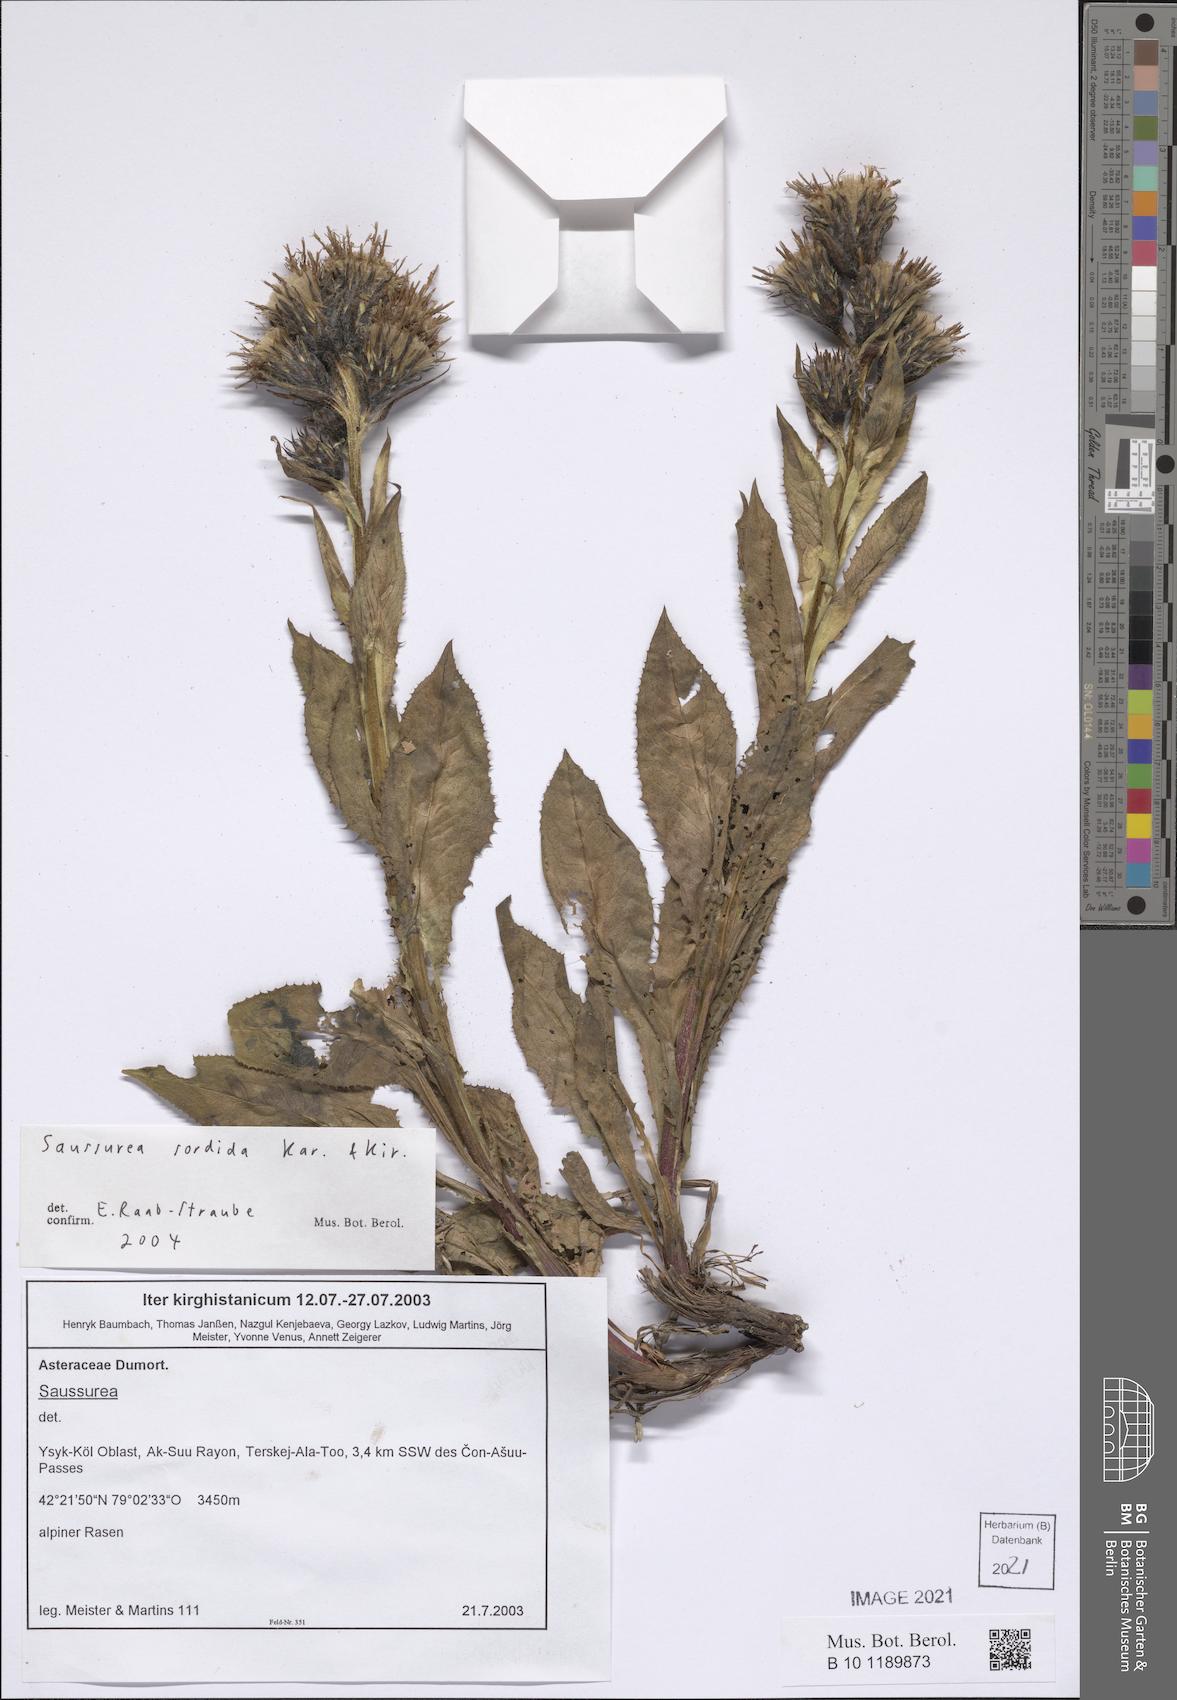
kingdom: Plantae
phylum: Tracheophyta
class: Magnoliopsida
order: Asterales
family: Asteraceae
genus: Saussurea
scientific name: Saussurea sordida
